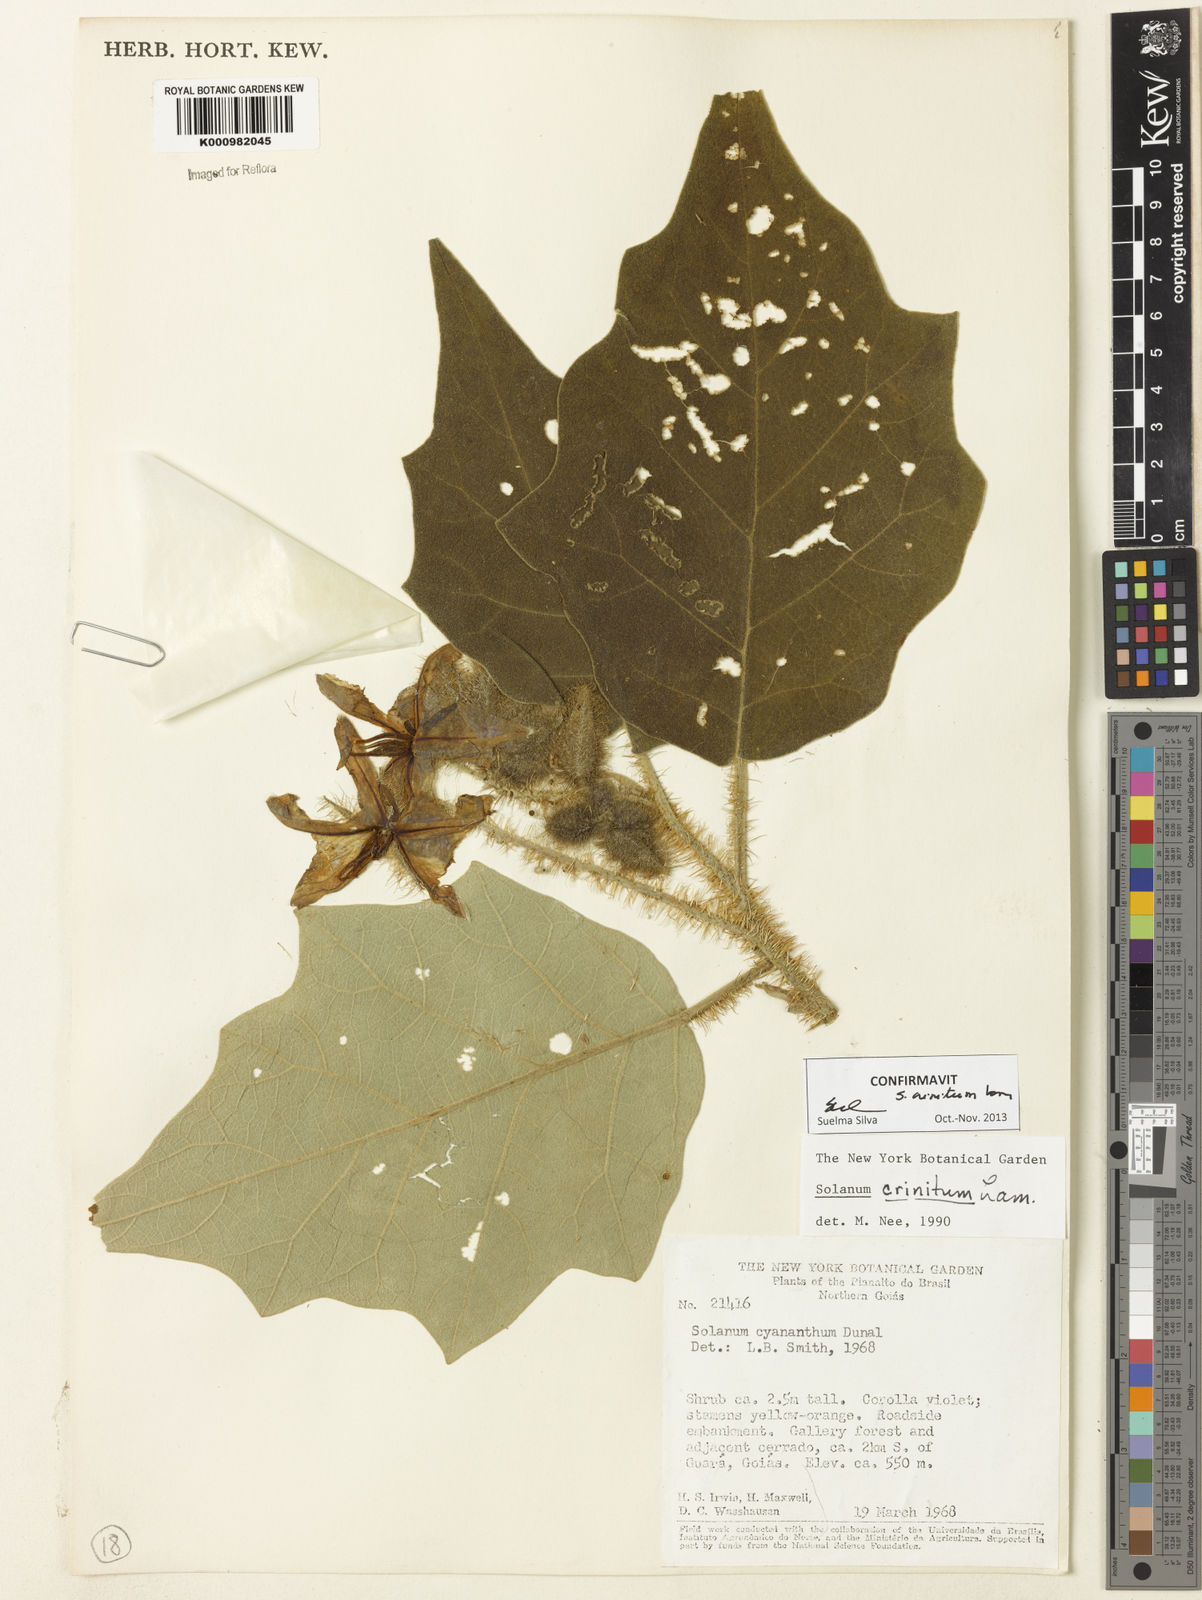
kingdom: Plantae
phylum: Tracheophyta
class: Magnoliopsida
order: Solanales
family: Solanaceae
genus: Solanum
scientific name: Solanum crinitum
